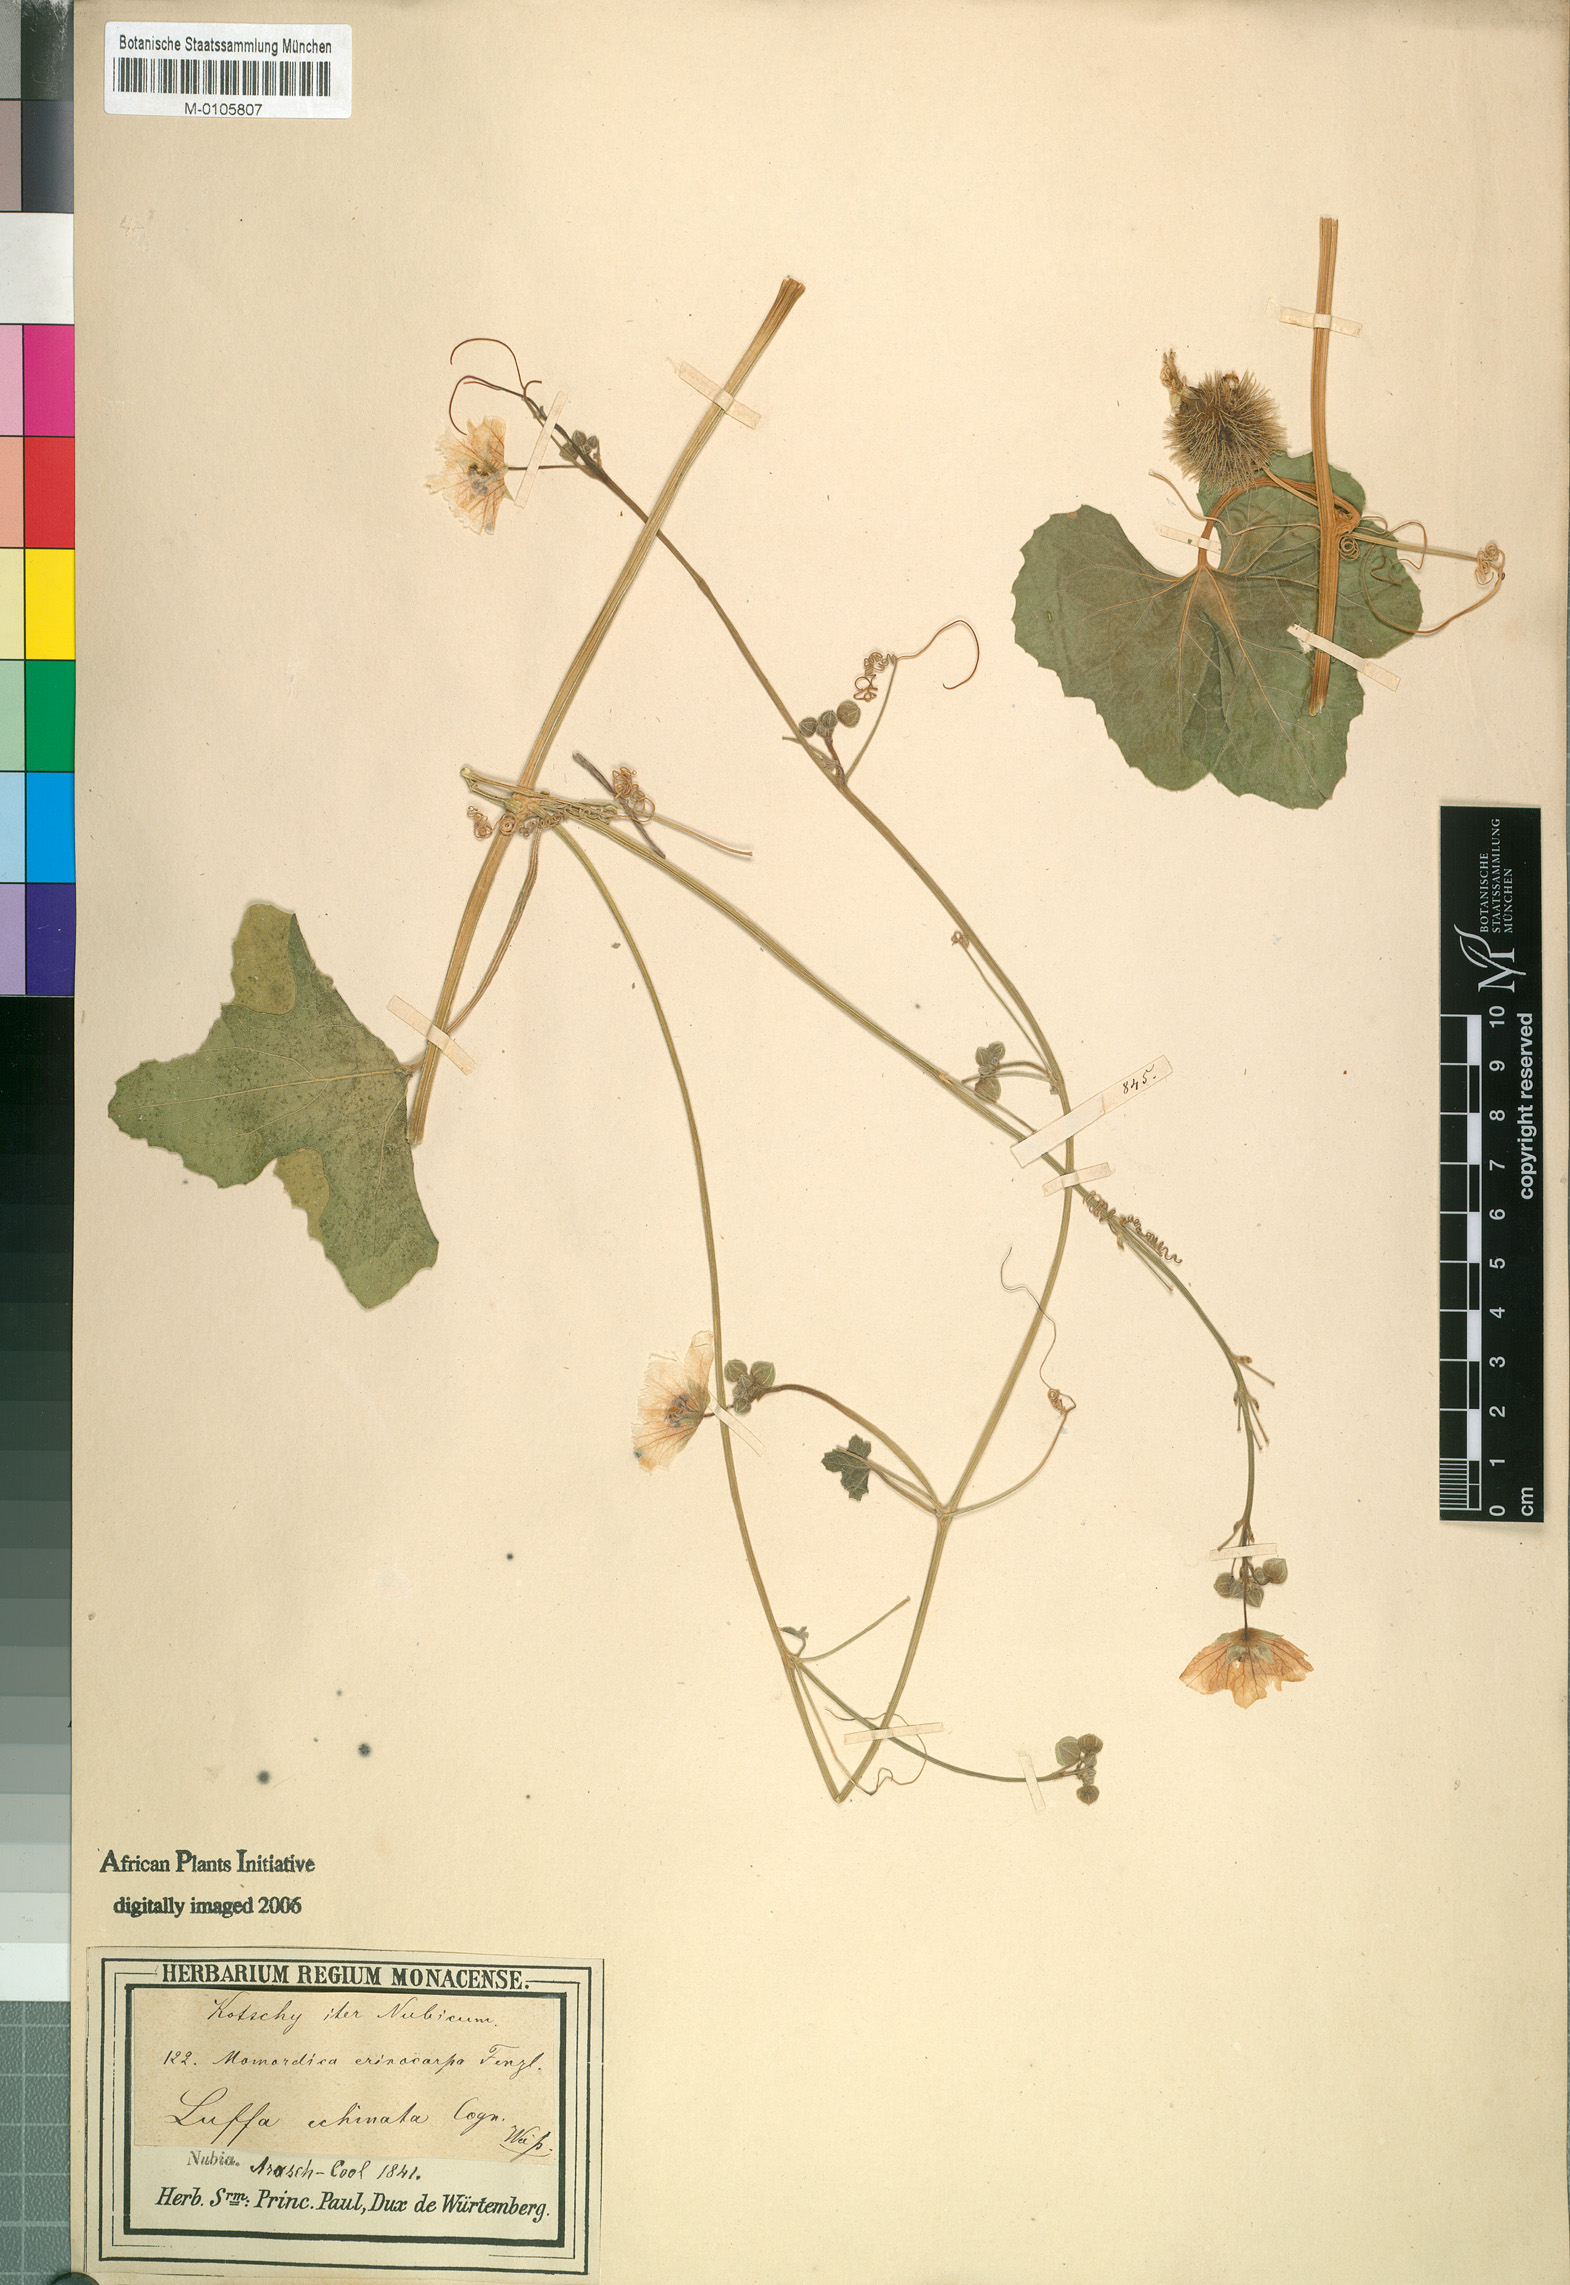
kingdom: Plantae
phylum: Tracheophyta
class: Magnoliopsida
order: Cucurbitales
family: Cucurbitaceae
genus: Luffa
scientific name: Luffa echinata
